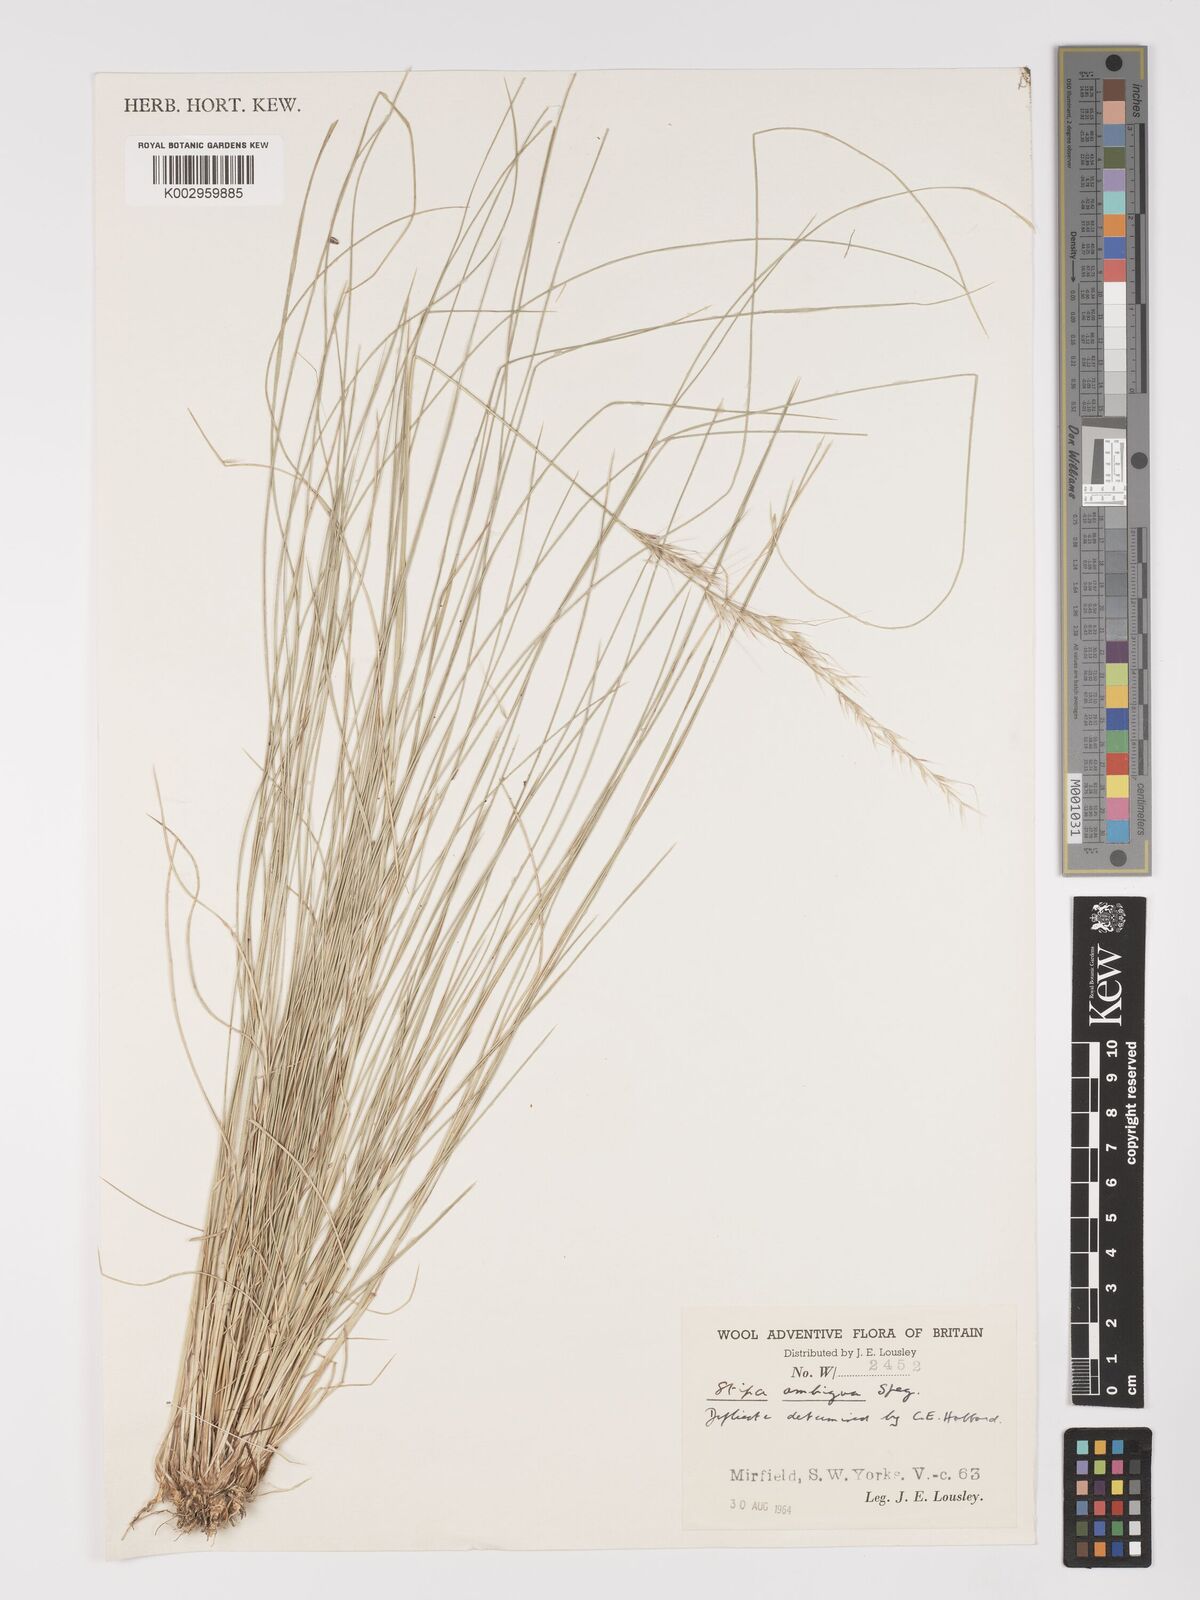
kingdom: Plantae
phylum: Tracheophyta
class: Liliopsida
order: Poales
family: Poaceae
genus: Amelichloa
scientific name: Amelichloa ambigua
